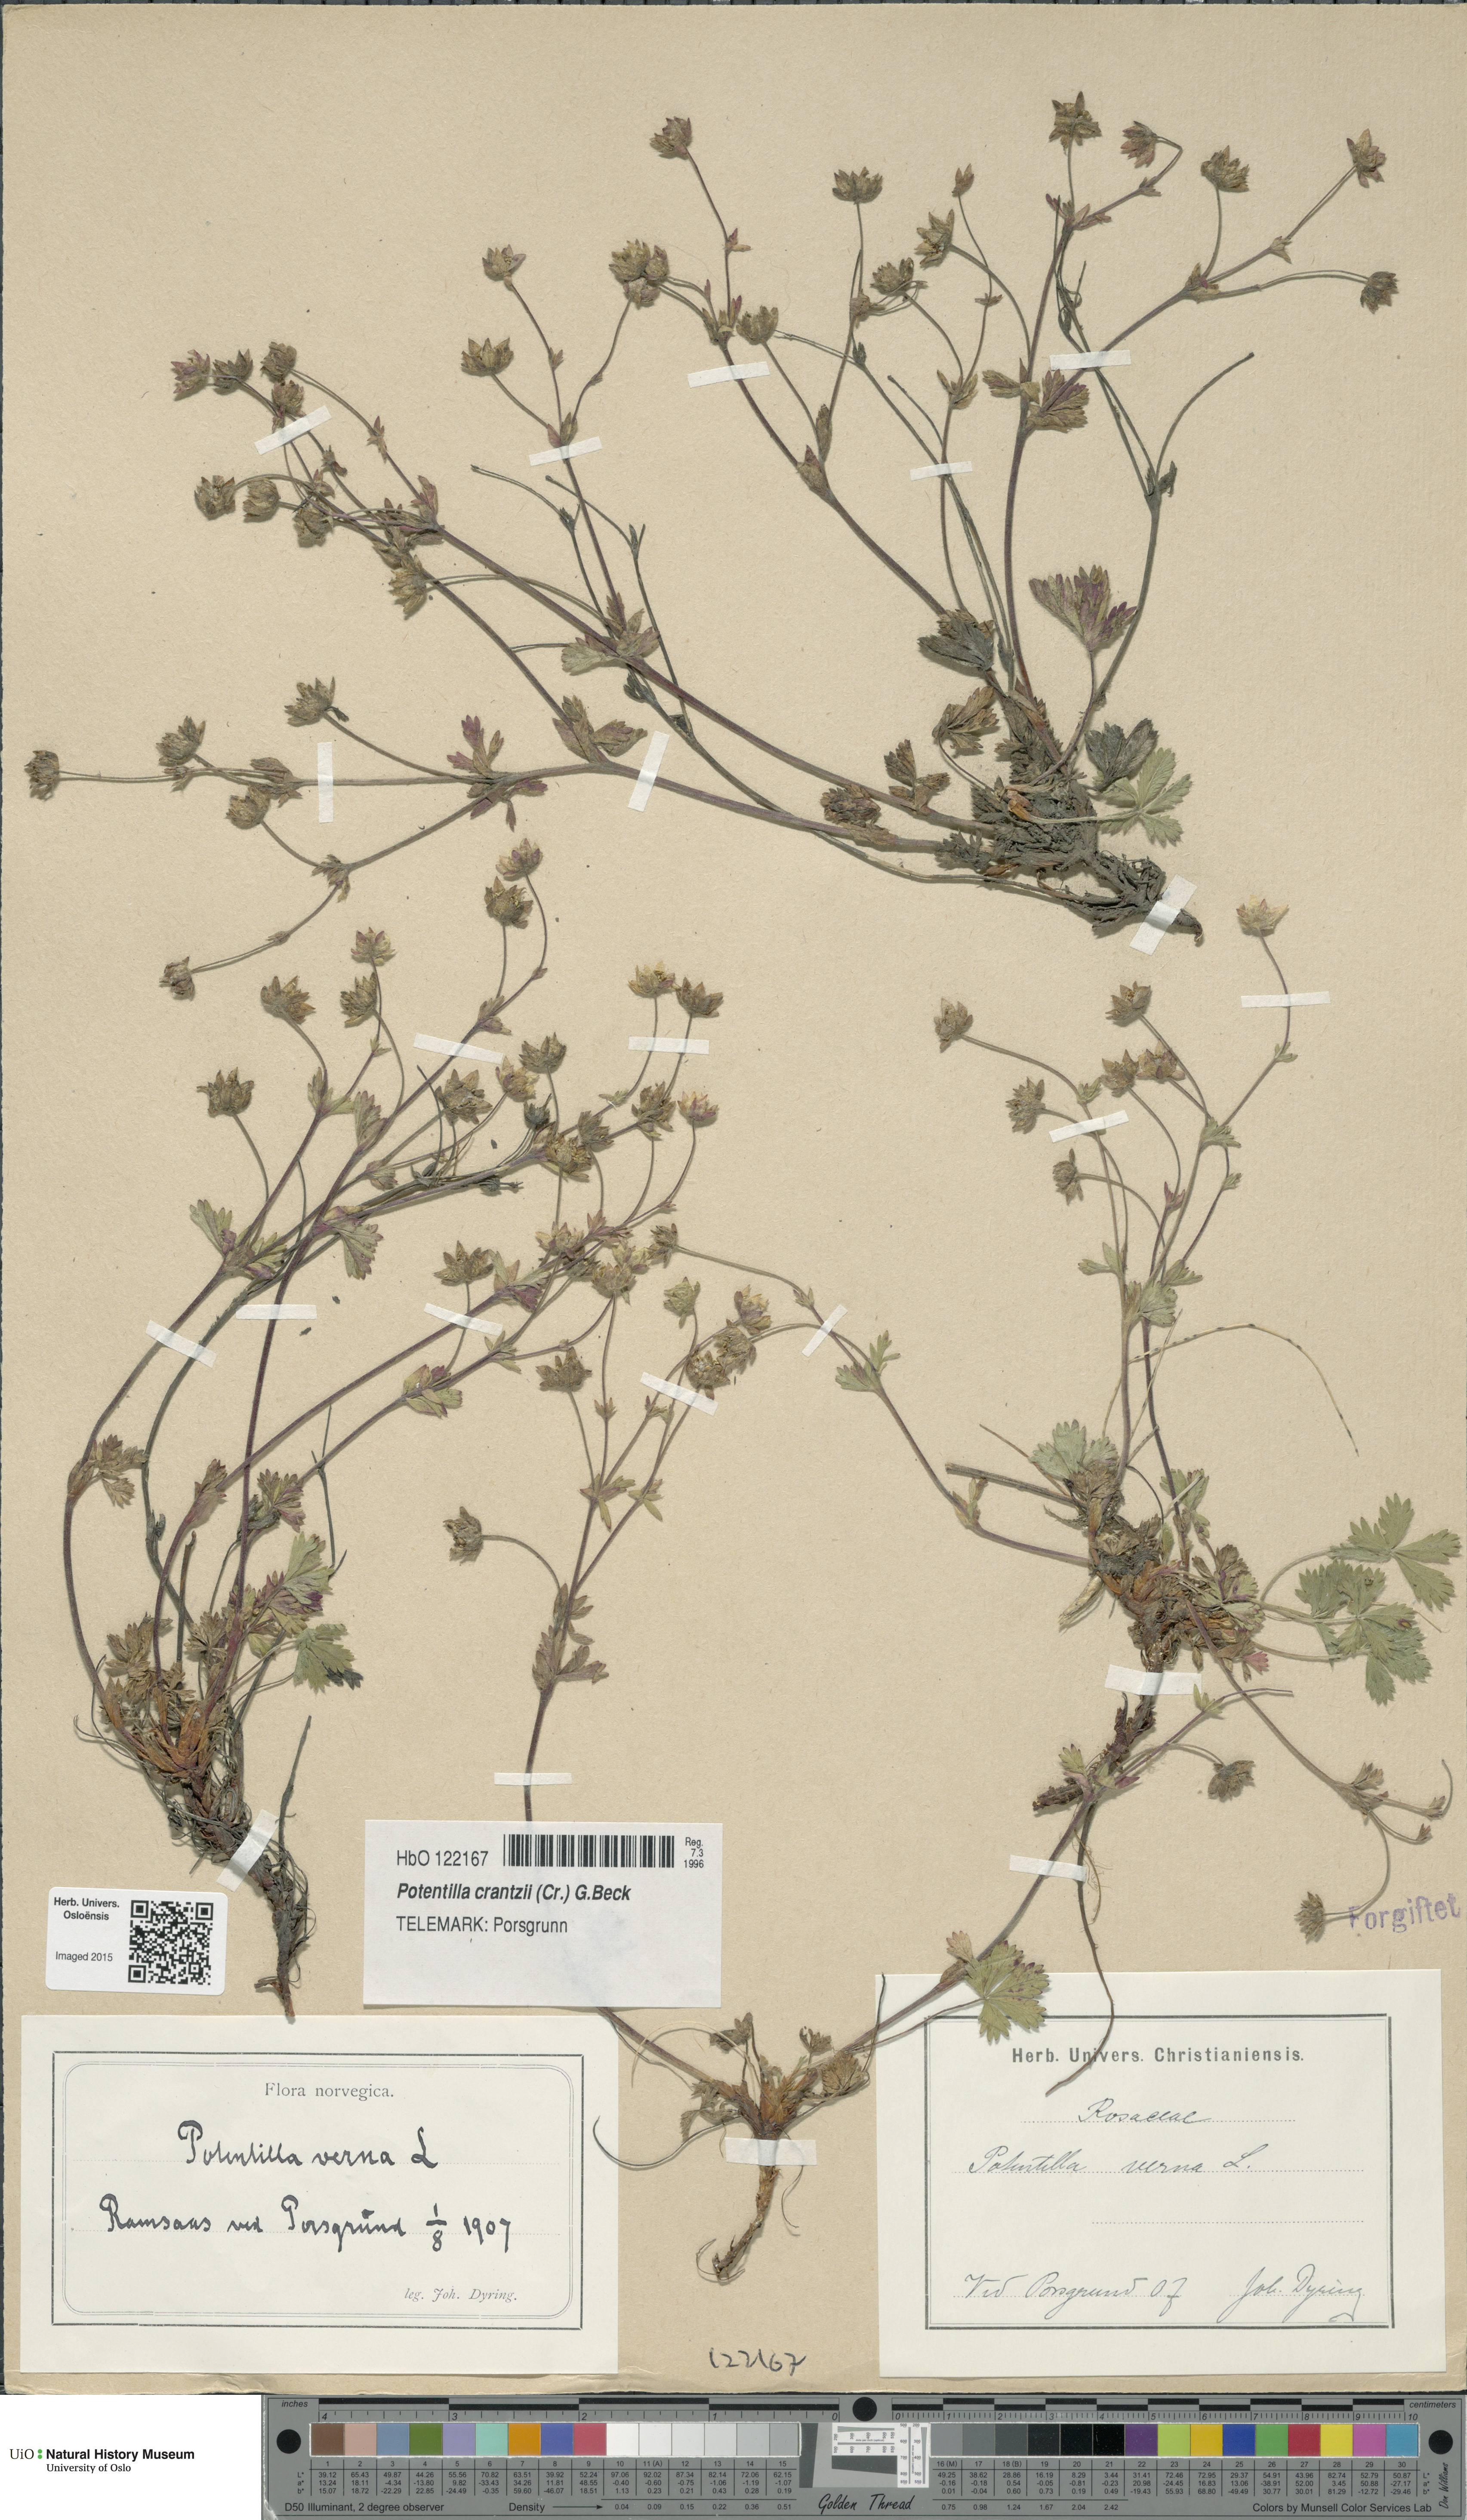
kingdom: Plantae
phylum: Tracheophyta
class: Magnoliopsida
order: Rosales
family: Rosaceae
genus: Potentilla
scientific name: Potentilla verna
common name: Spring cinquefoil
